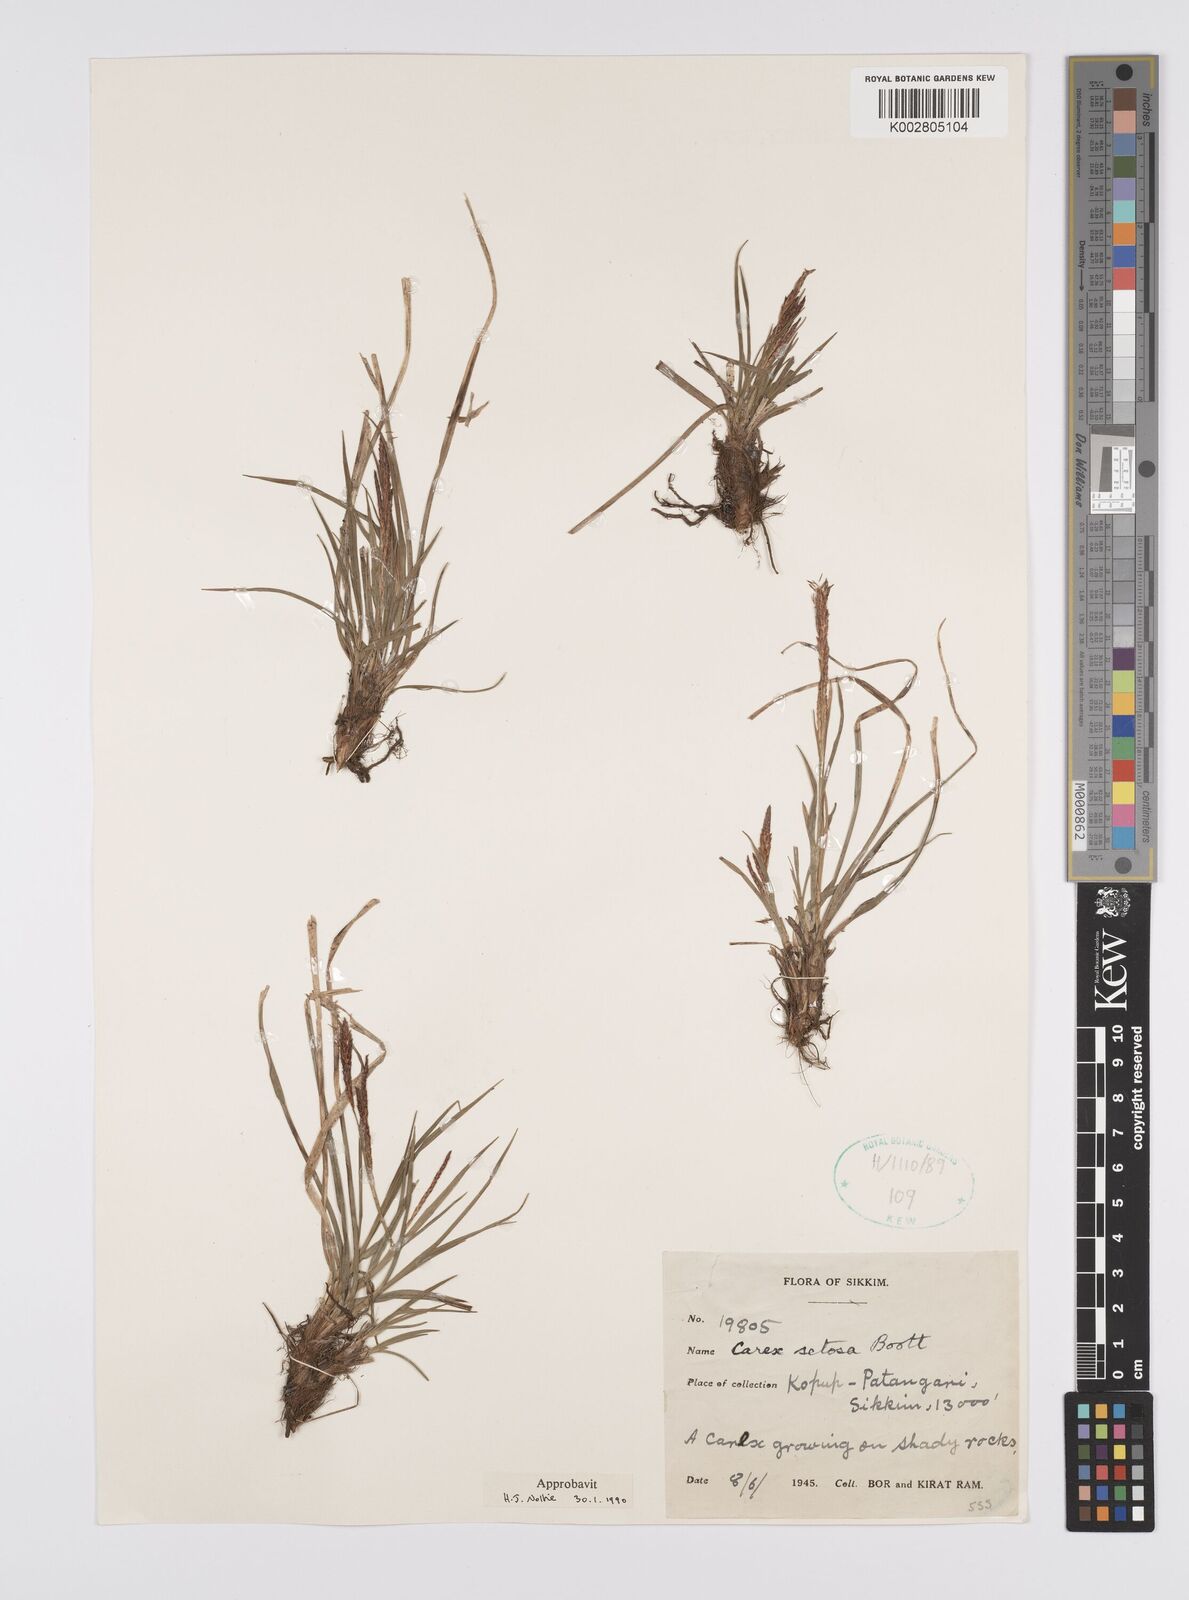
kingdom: Plantae
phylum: Tracheophyta
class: Liliopsida
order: Poales
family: Cyperaceae
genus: Carex
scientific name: Carex setosa
